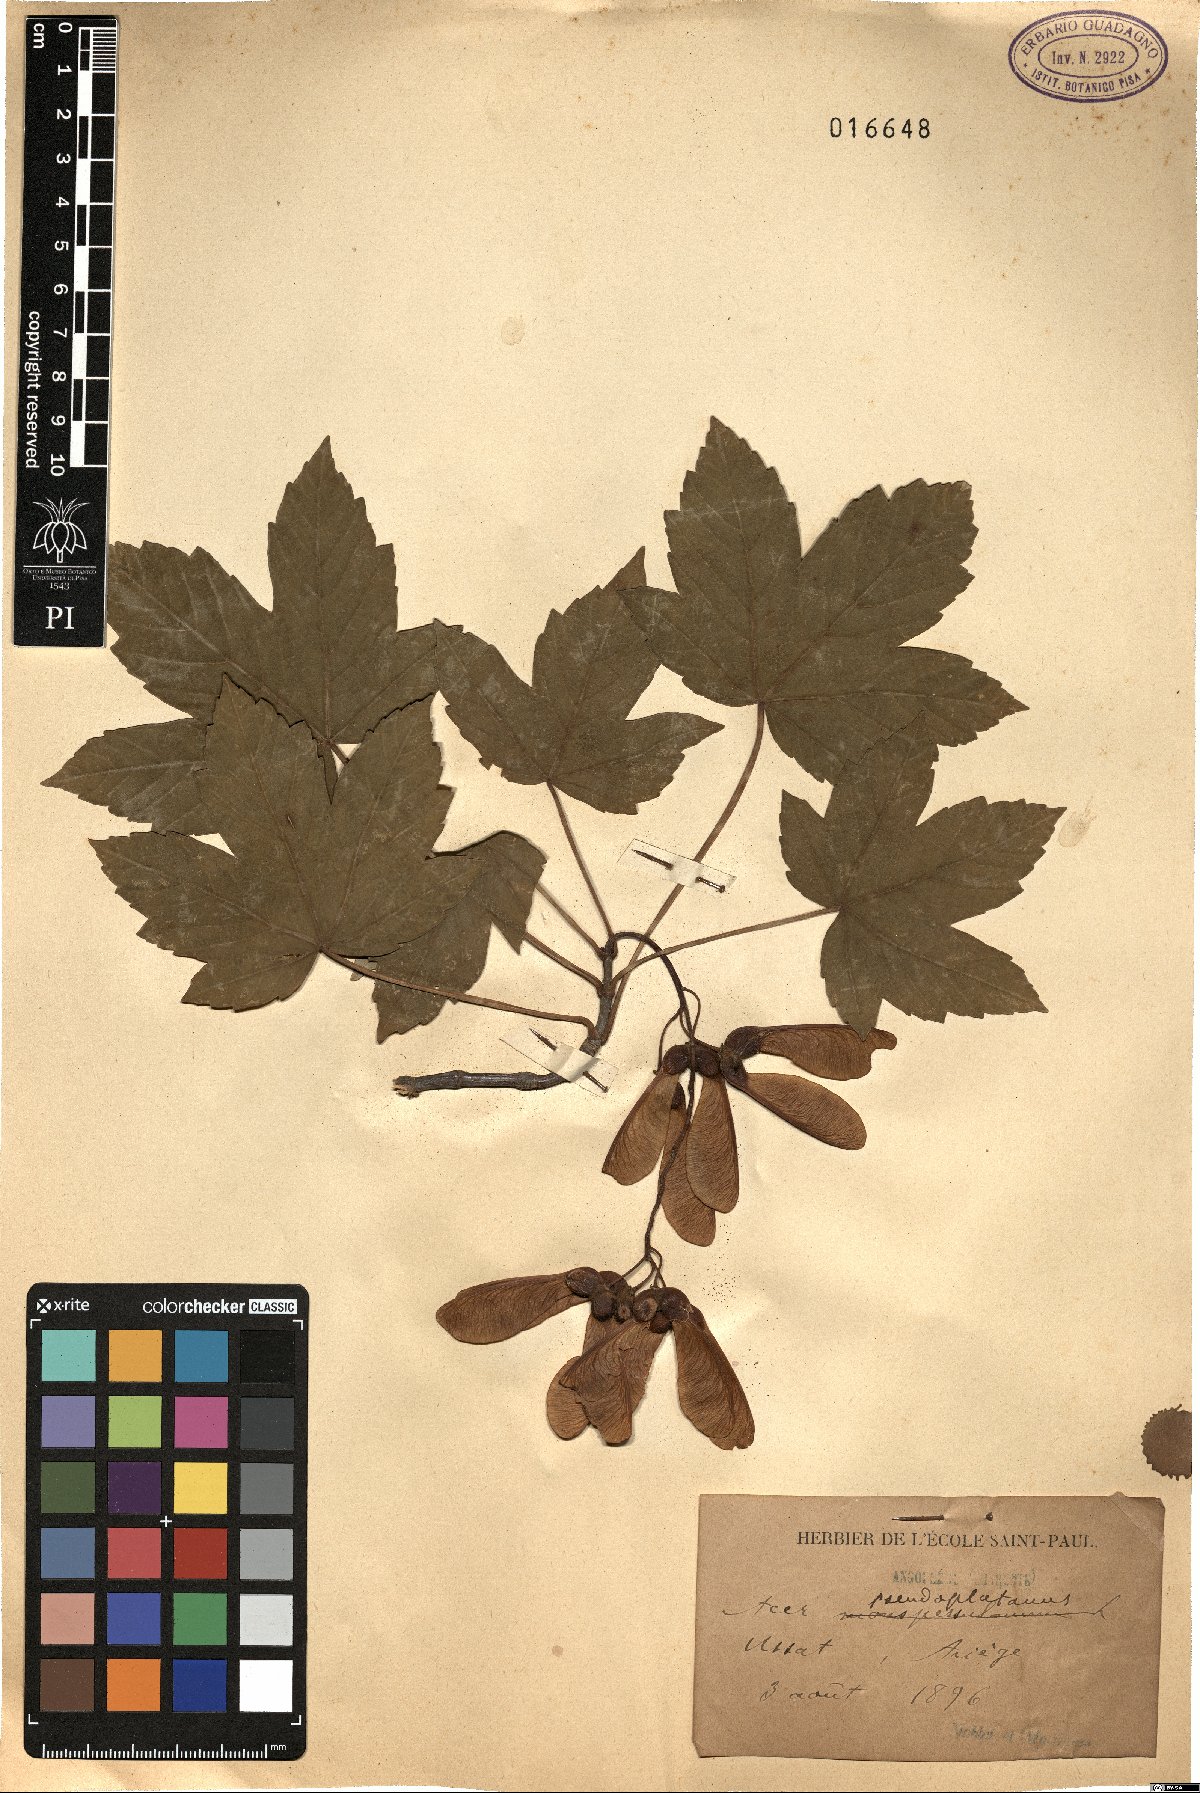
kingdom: Plantae
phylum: Tracheophyta
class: Magnoliopsida
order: Sapindales
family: Sapindaceae
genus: Acer
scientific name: Acer pseudoplatanus
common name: Sycamore
